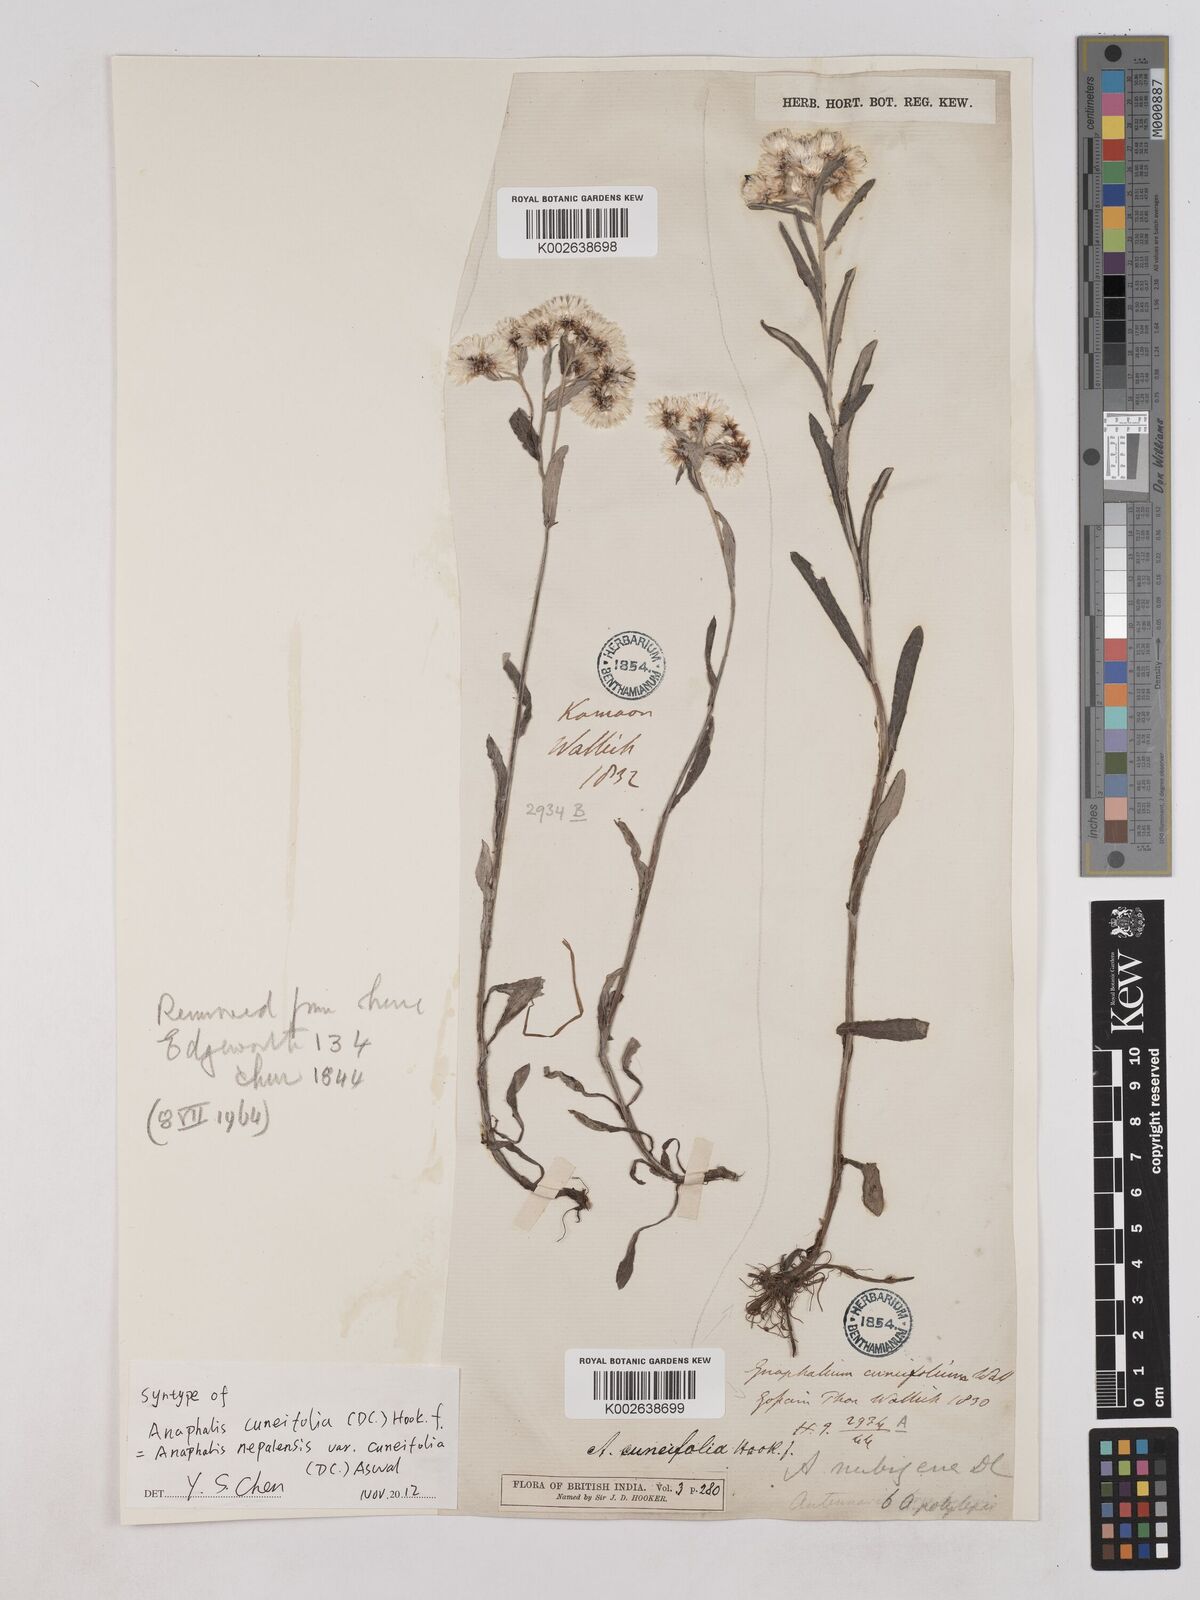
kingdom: Plantae
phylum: Tracheophyta
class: Magnoliopsida
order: Asterales
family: Asteraceae
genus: Anaphalioides
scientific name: Anaphalioides trinervis
